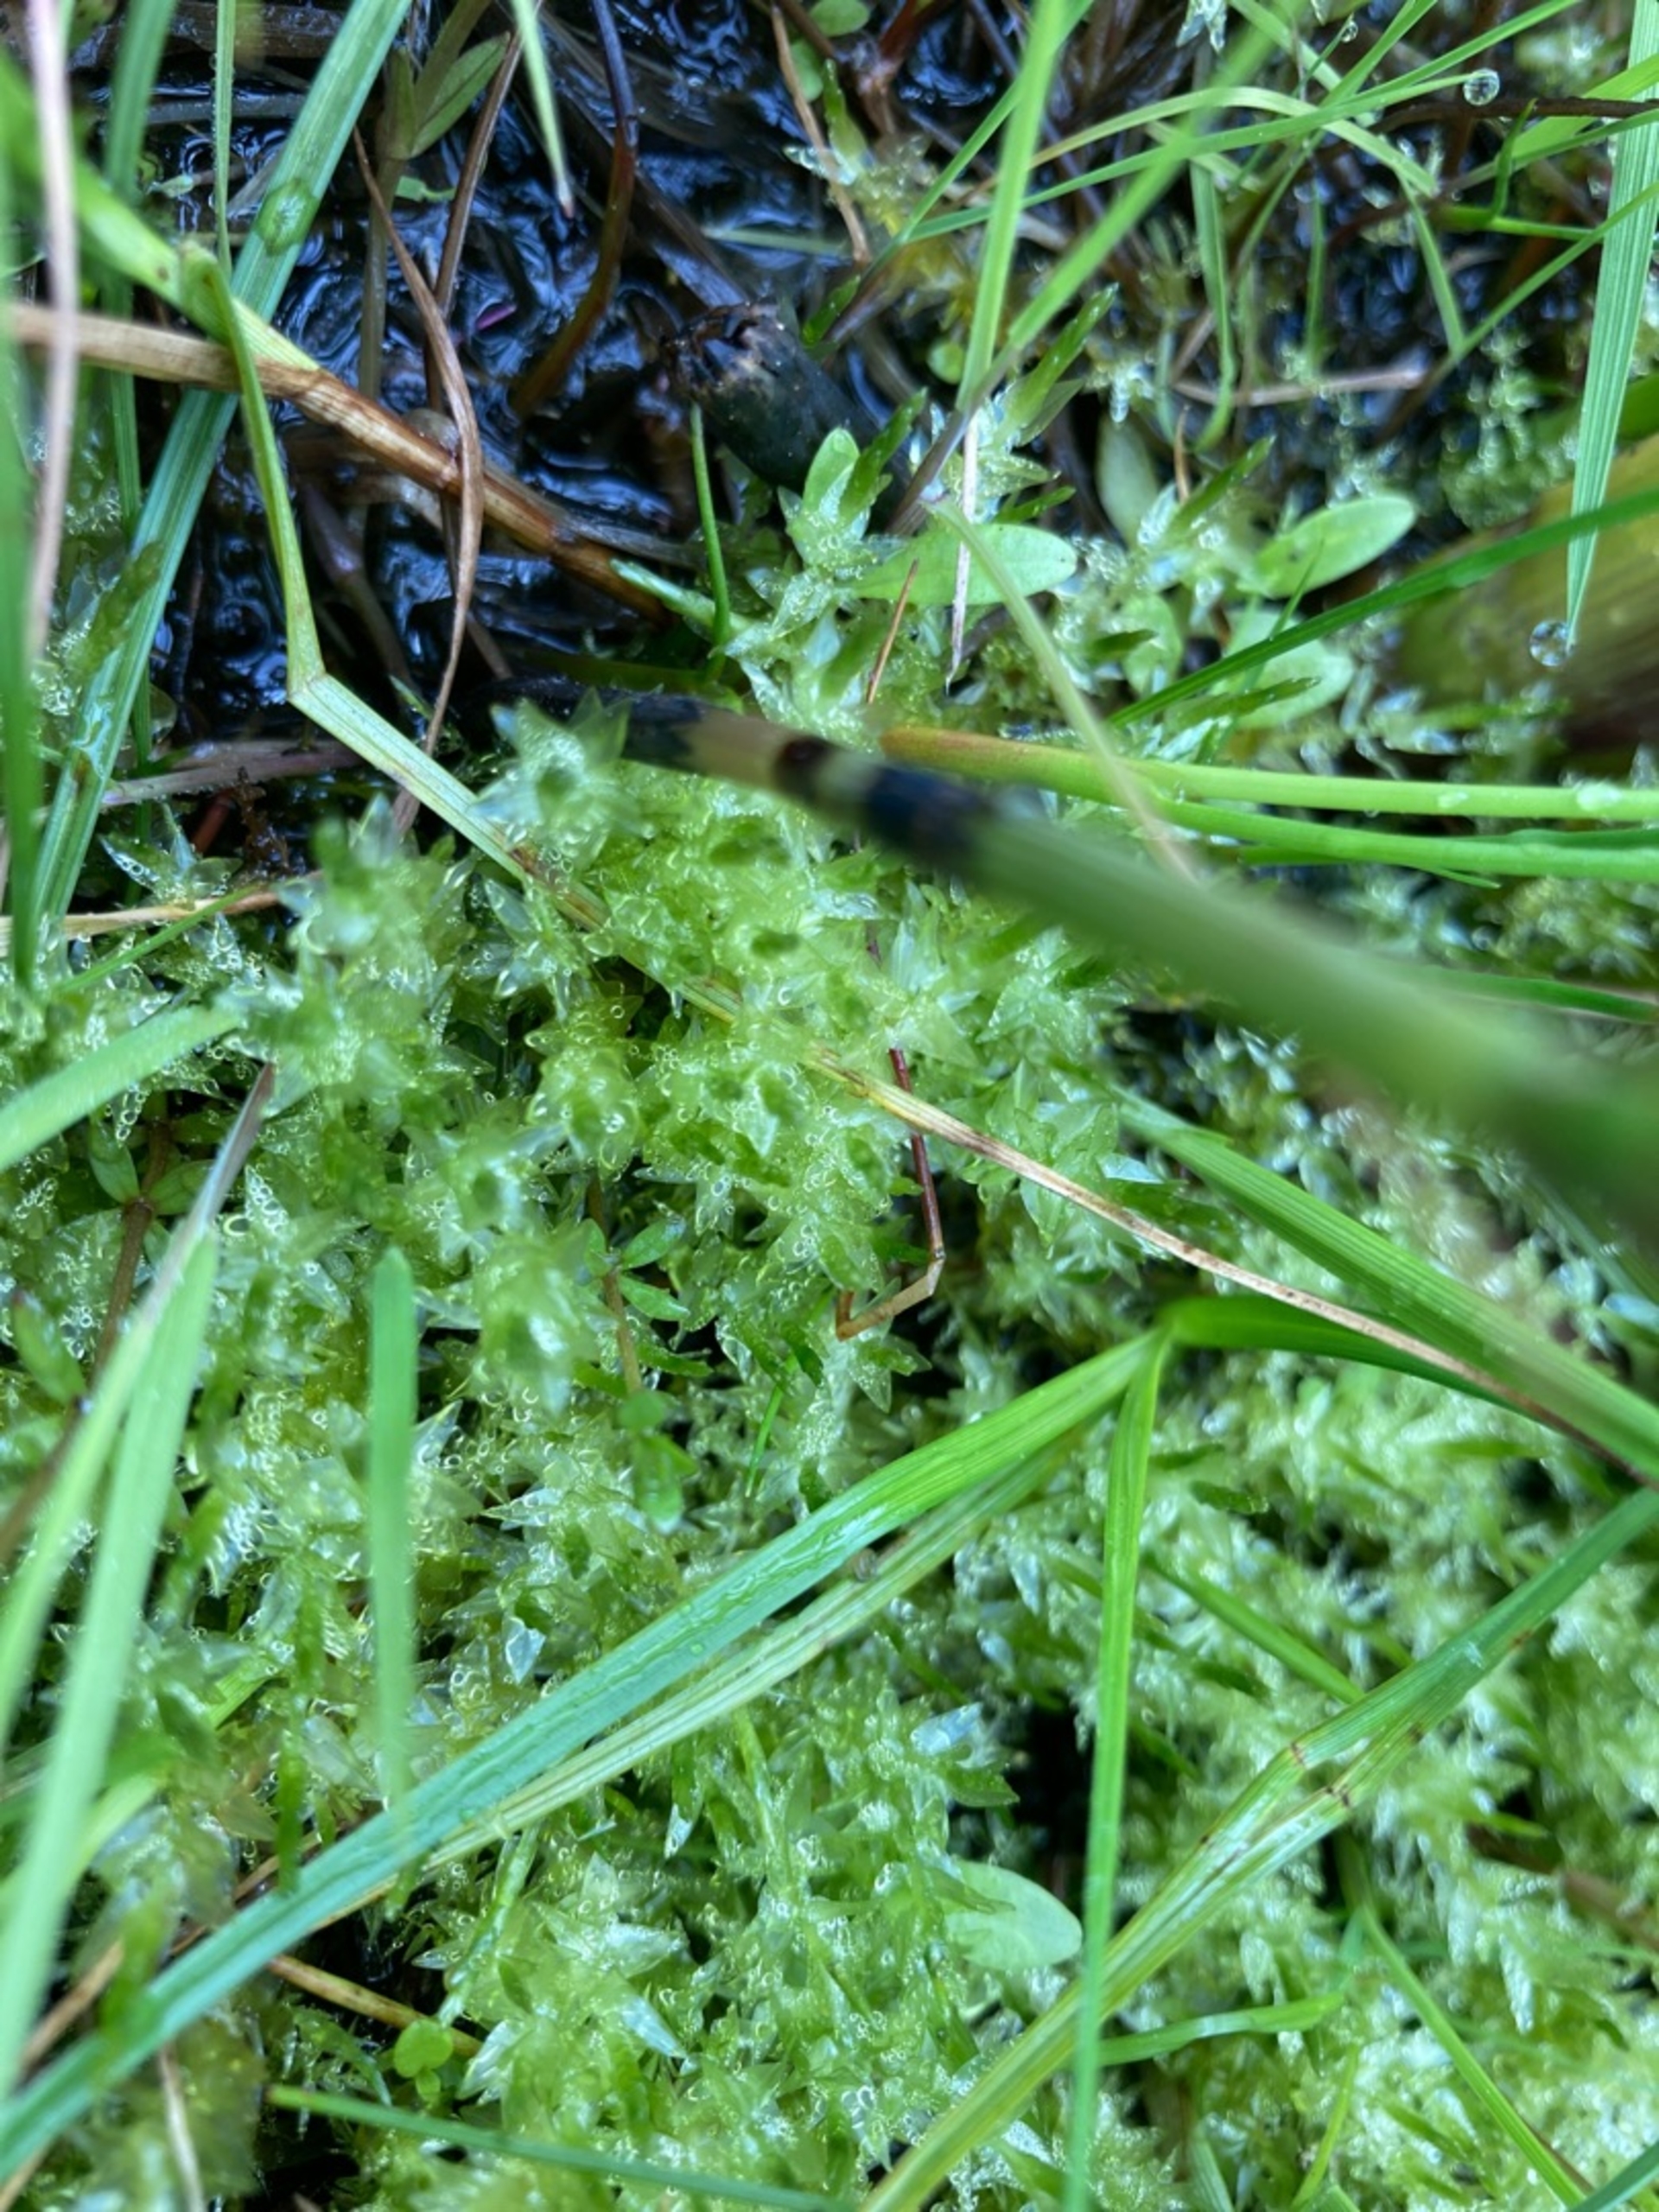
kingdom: Plantae
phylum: Bryophyta
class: Bryopsida
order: Hypnales
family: Calliergonaceae
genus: Calliergon
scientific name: Calliergon cordifolium
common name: Almindelig skebladsmos
